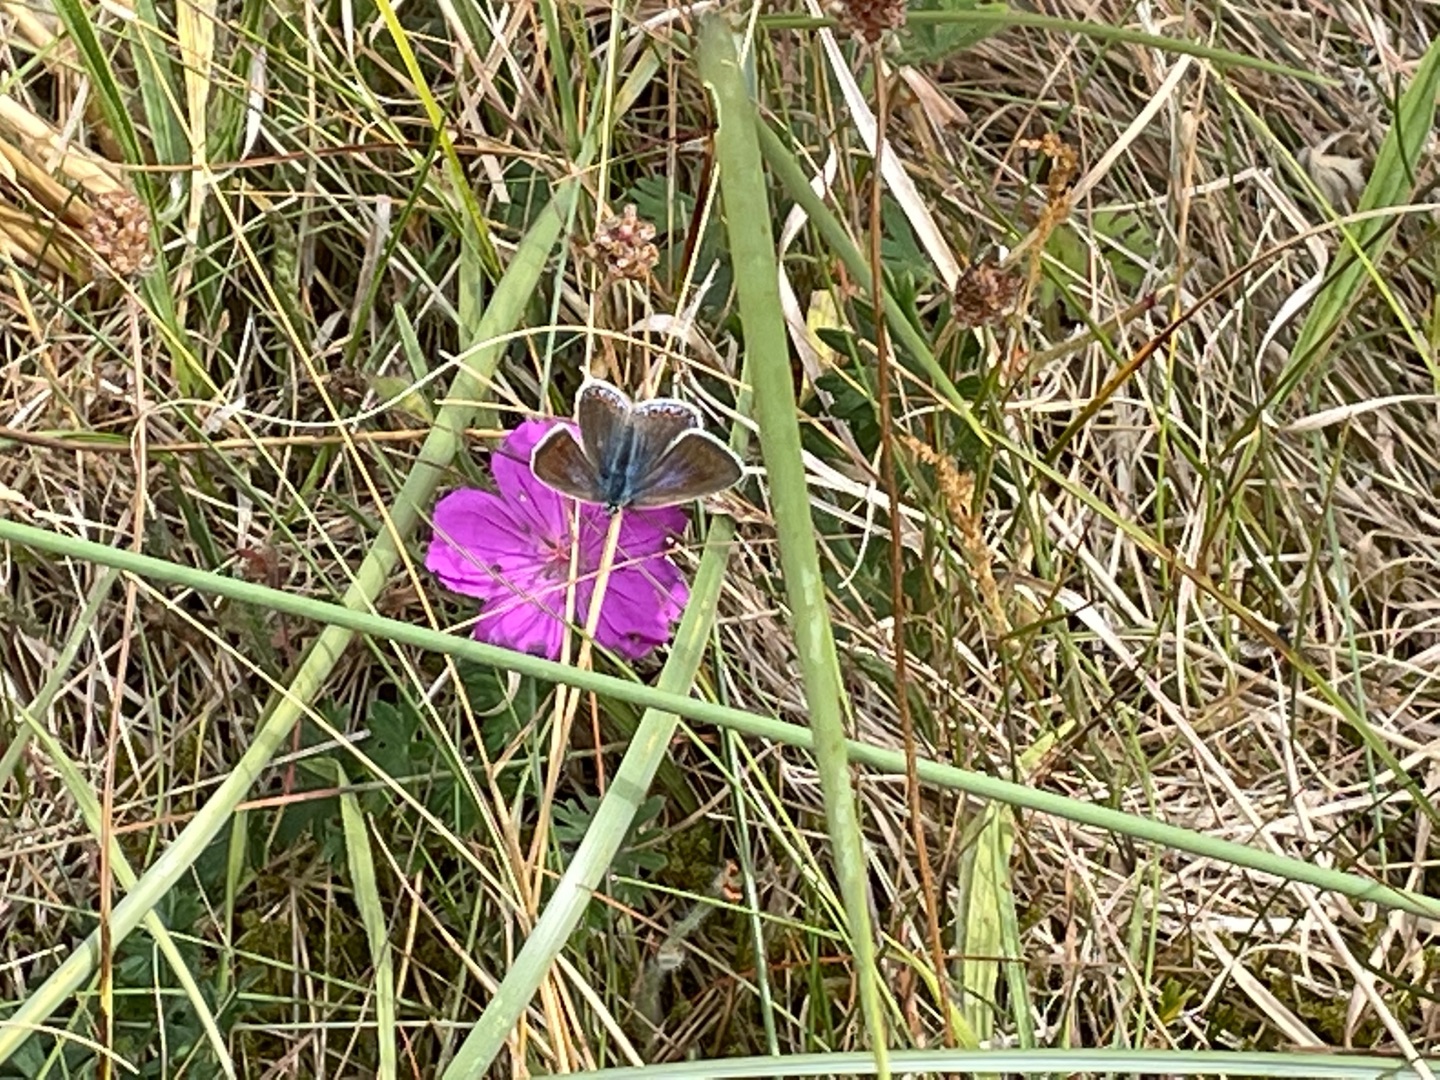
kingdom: Animalia
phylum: Arthropoda
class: Insecta
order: Lepidoptera
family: Lycaenidae
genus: Polyommatus
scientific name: Polyommatus icarus
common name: Almindelig blåfugl
